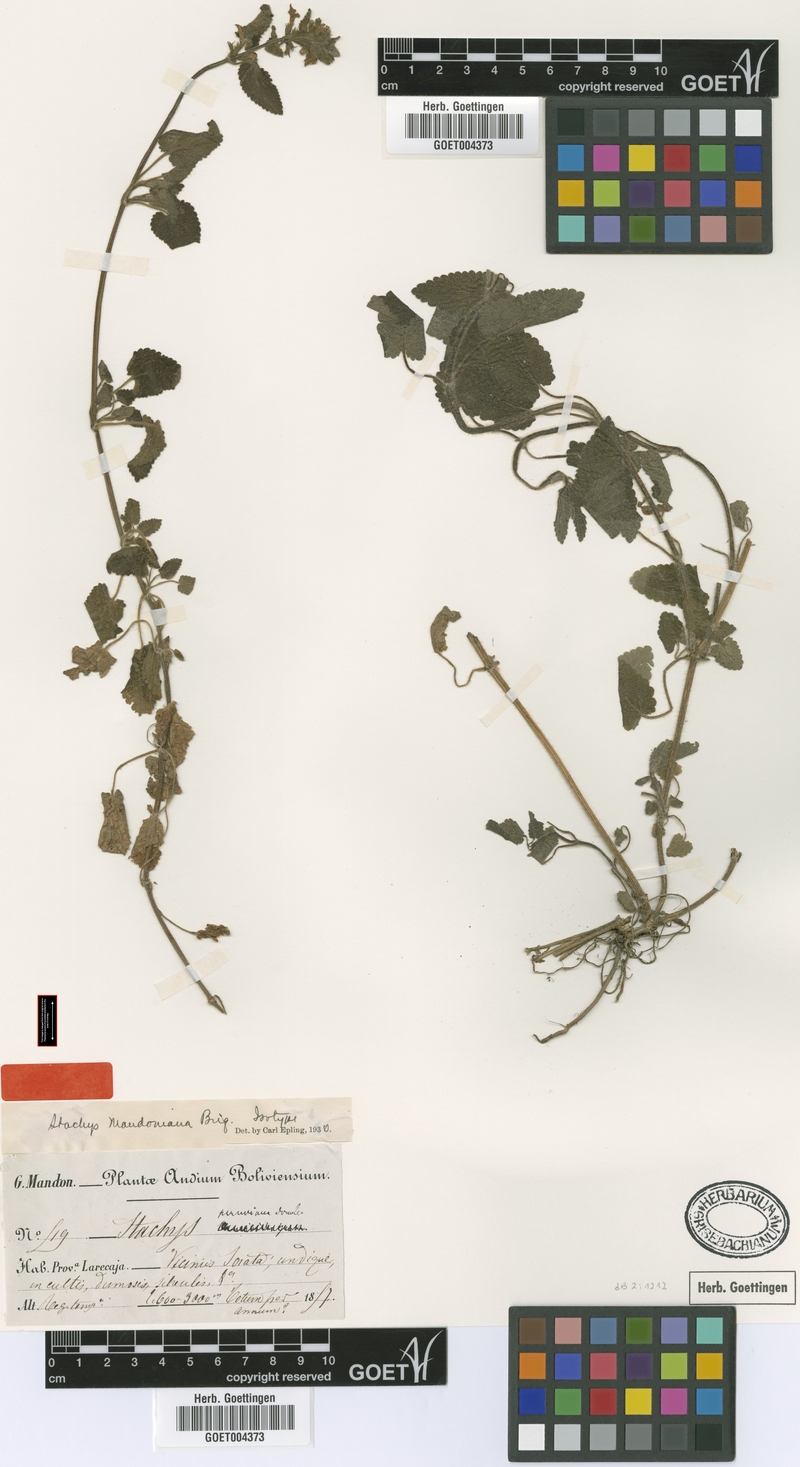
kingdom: Plantae
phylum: Tracheophyta
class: Magnoliopsida
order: Lamiales
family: Lamiaceae
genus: Stachys
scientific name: Stachys mandoniana
